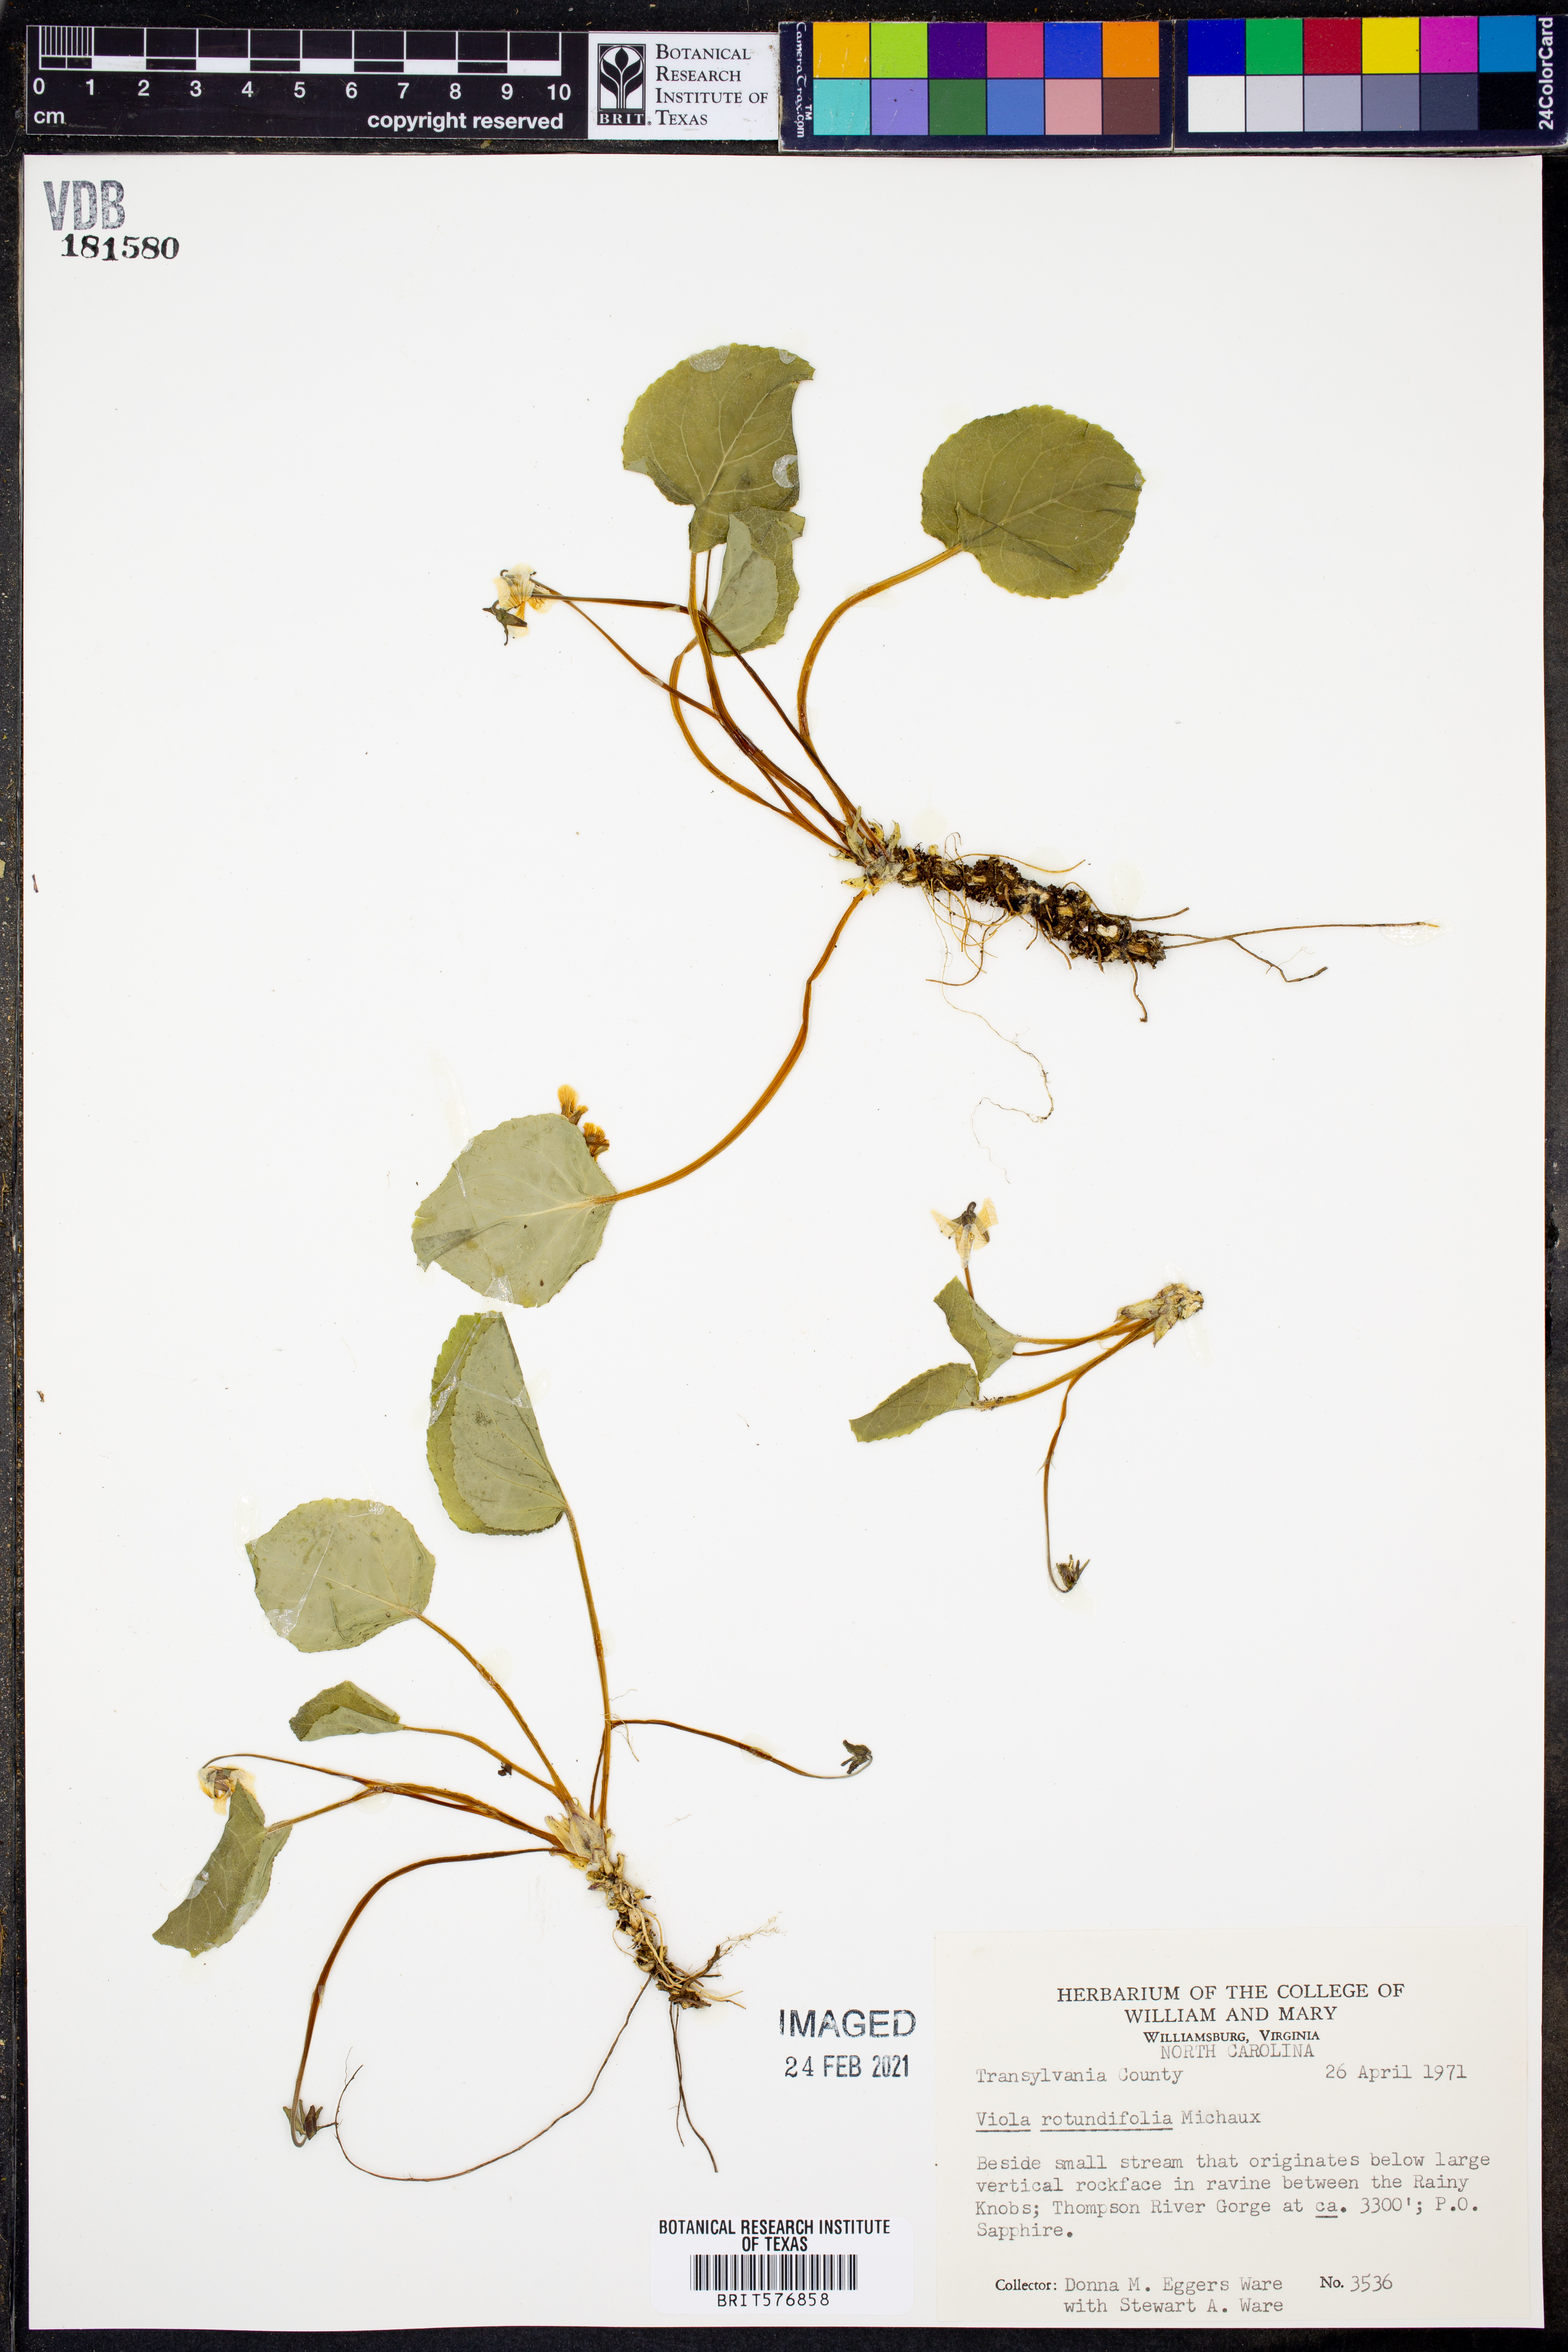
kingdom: Plantae
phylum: Tracheophyta
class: Magnoliopsida
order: Malpighiales
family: Violaceae
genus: Viola
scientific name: Viola rotundifolia
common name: Early yellow violet
